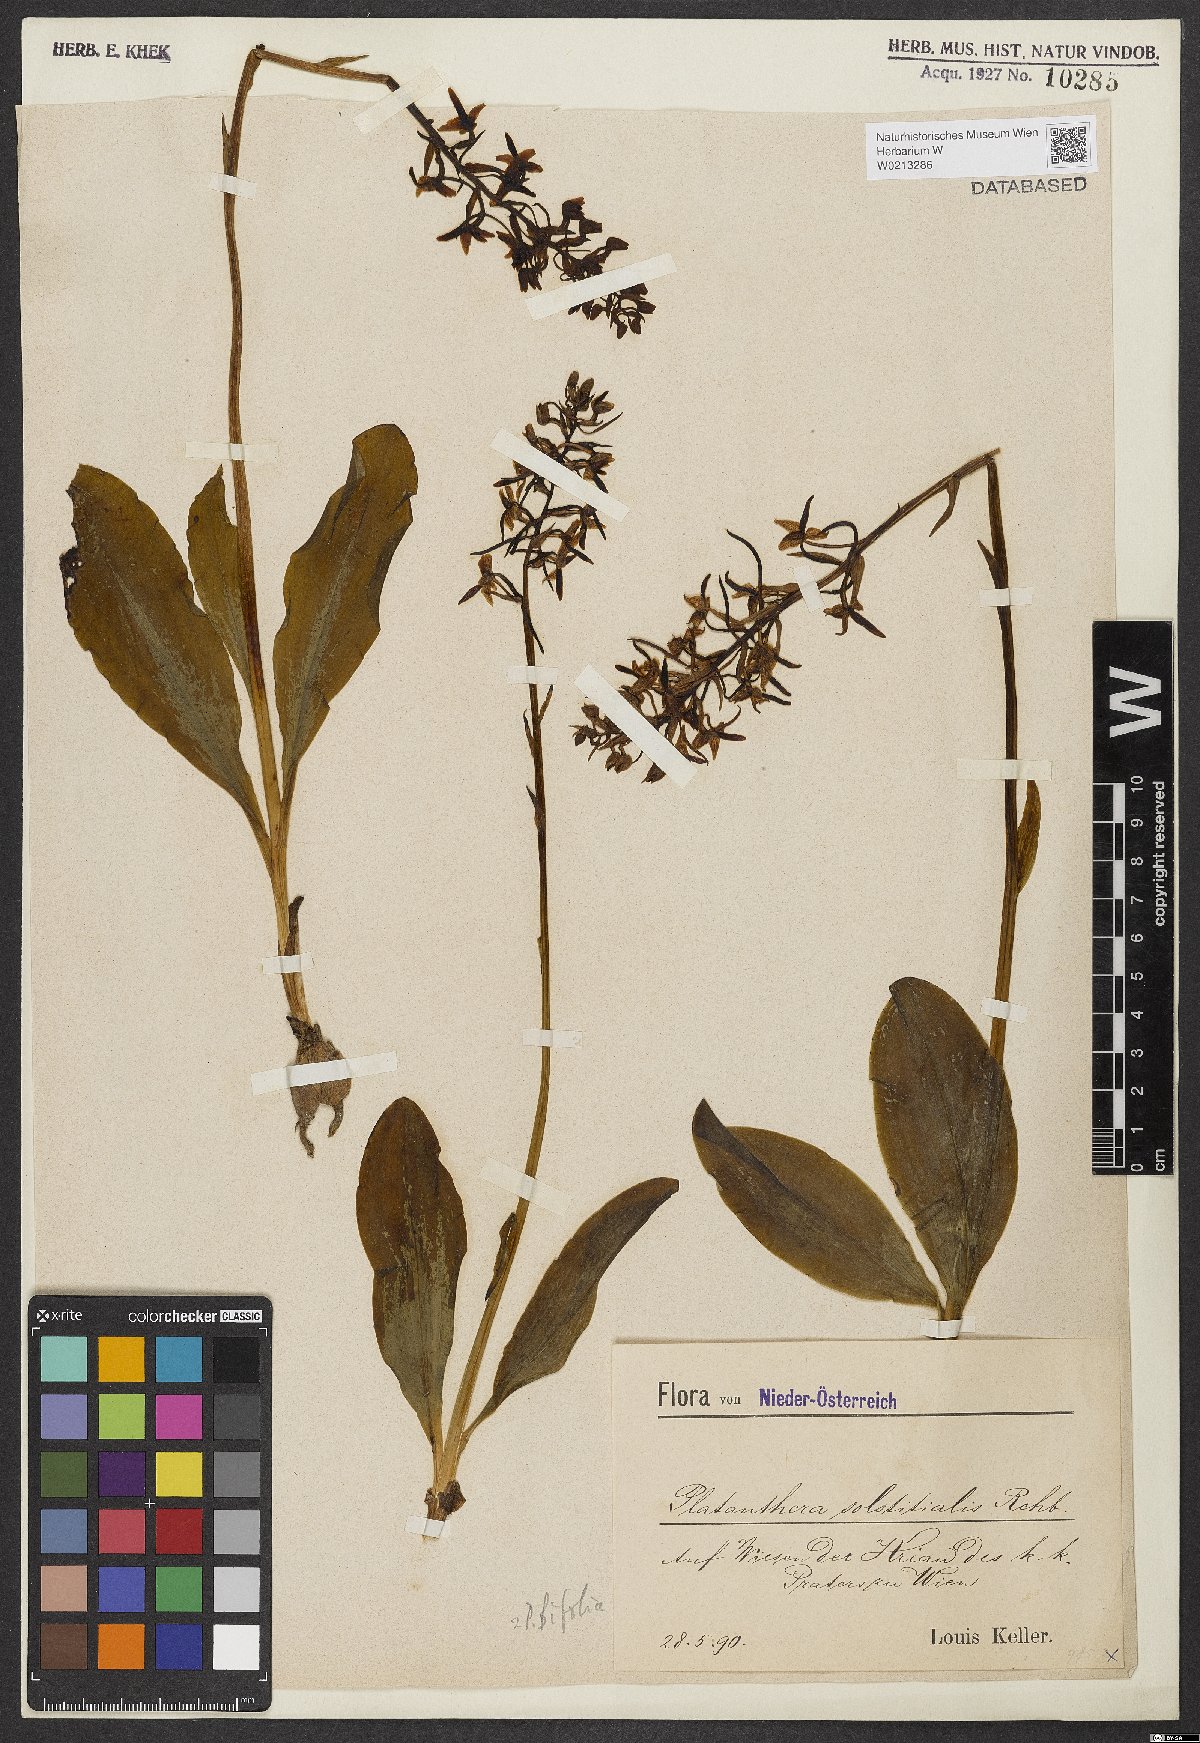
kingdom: Plantae
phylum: Tracheophyta
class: Liliopsida
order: Asparagales
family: Orchidaceae
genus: Platanthera
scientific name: Platanthera bifolia
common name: Lesser butterfly-orchid
